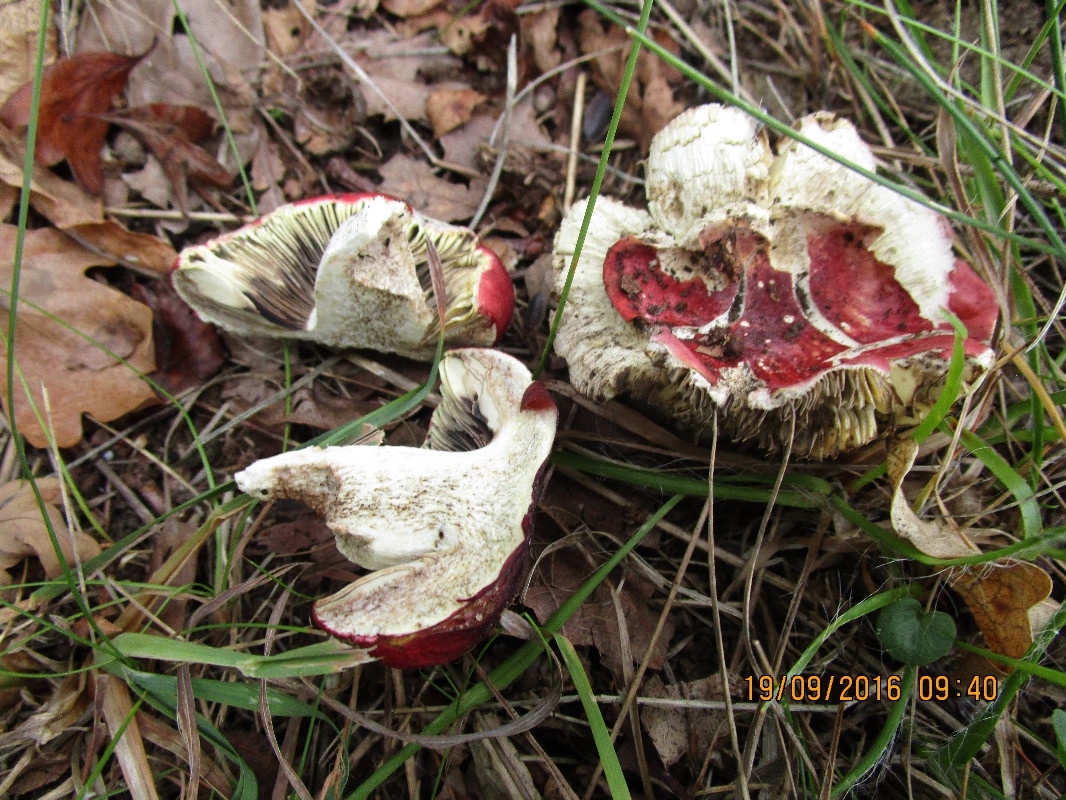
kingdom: Fungi
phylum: Basidiomycota
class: Agaricomycetes
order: Russulales
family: Russulaceae
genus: Russula
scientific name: Russula seperina
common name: rødmende skørhat
